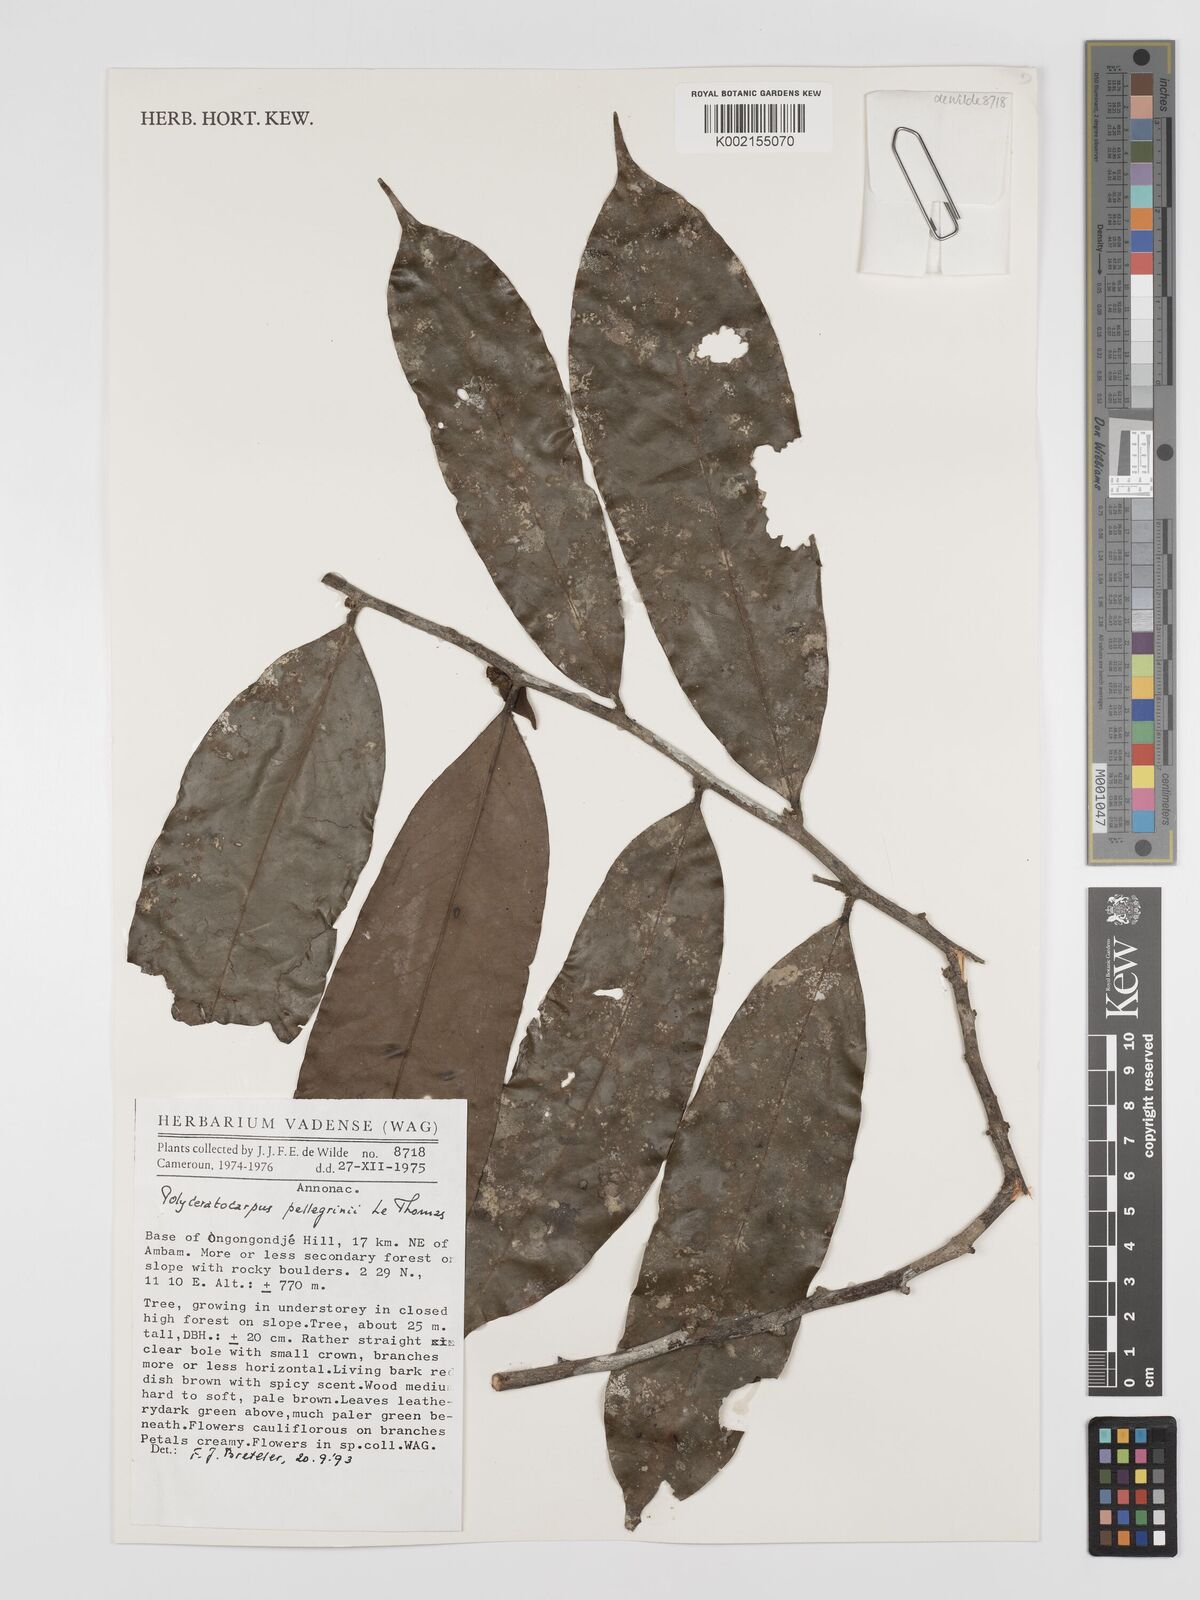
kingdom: Plantae
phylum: Tracheophyta
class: Magnoliopsida
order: Magnoliales
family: Annonaceae
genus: Polyceratocarpus
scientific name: Polyceratocarpus pellegrinii
